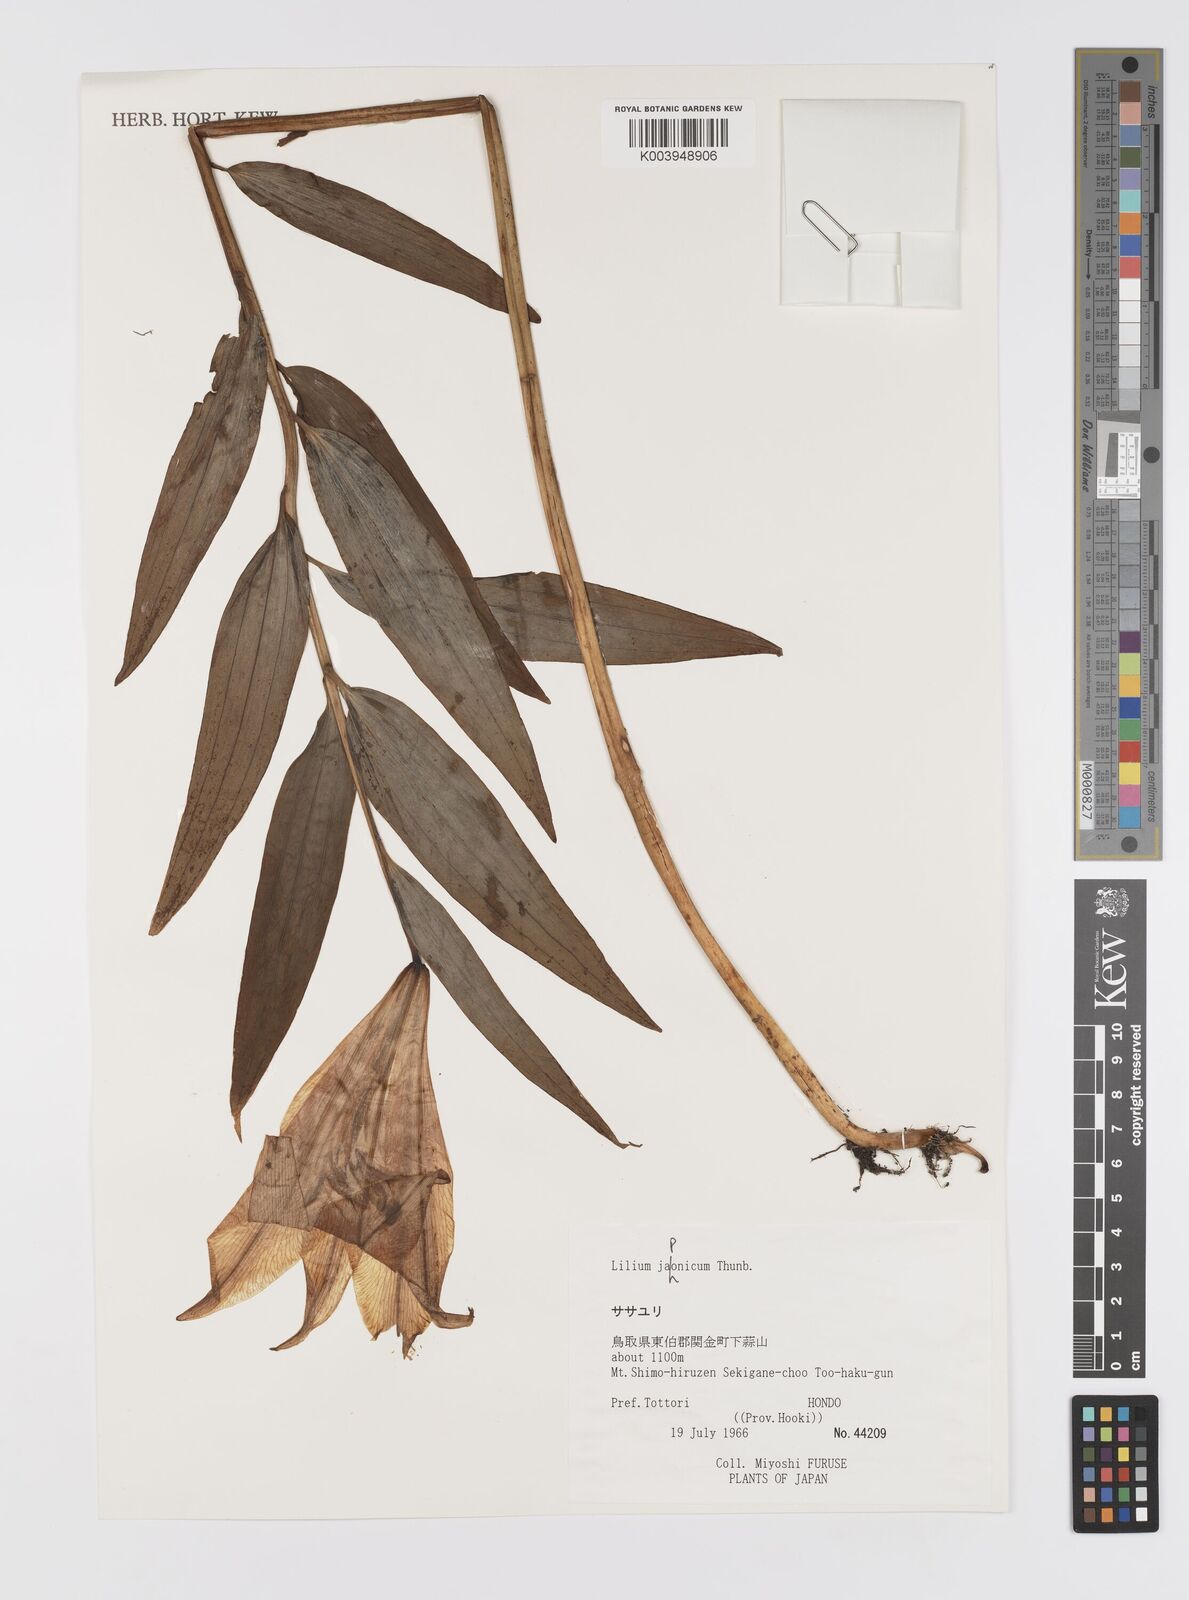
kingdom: Plantae
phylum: Tracheophyta
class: Liliopsida
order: Liliales
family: Liliaceae
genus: Lilium
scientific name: Lilium japonicum
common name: Japanese lily
